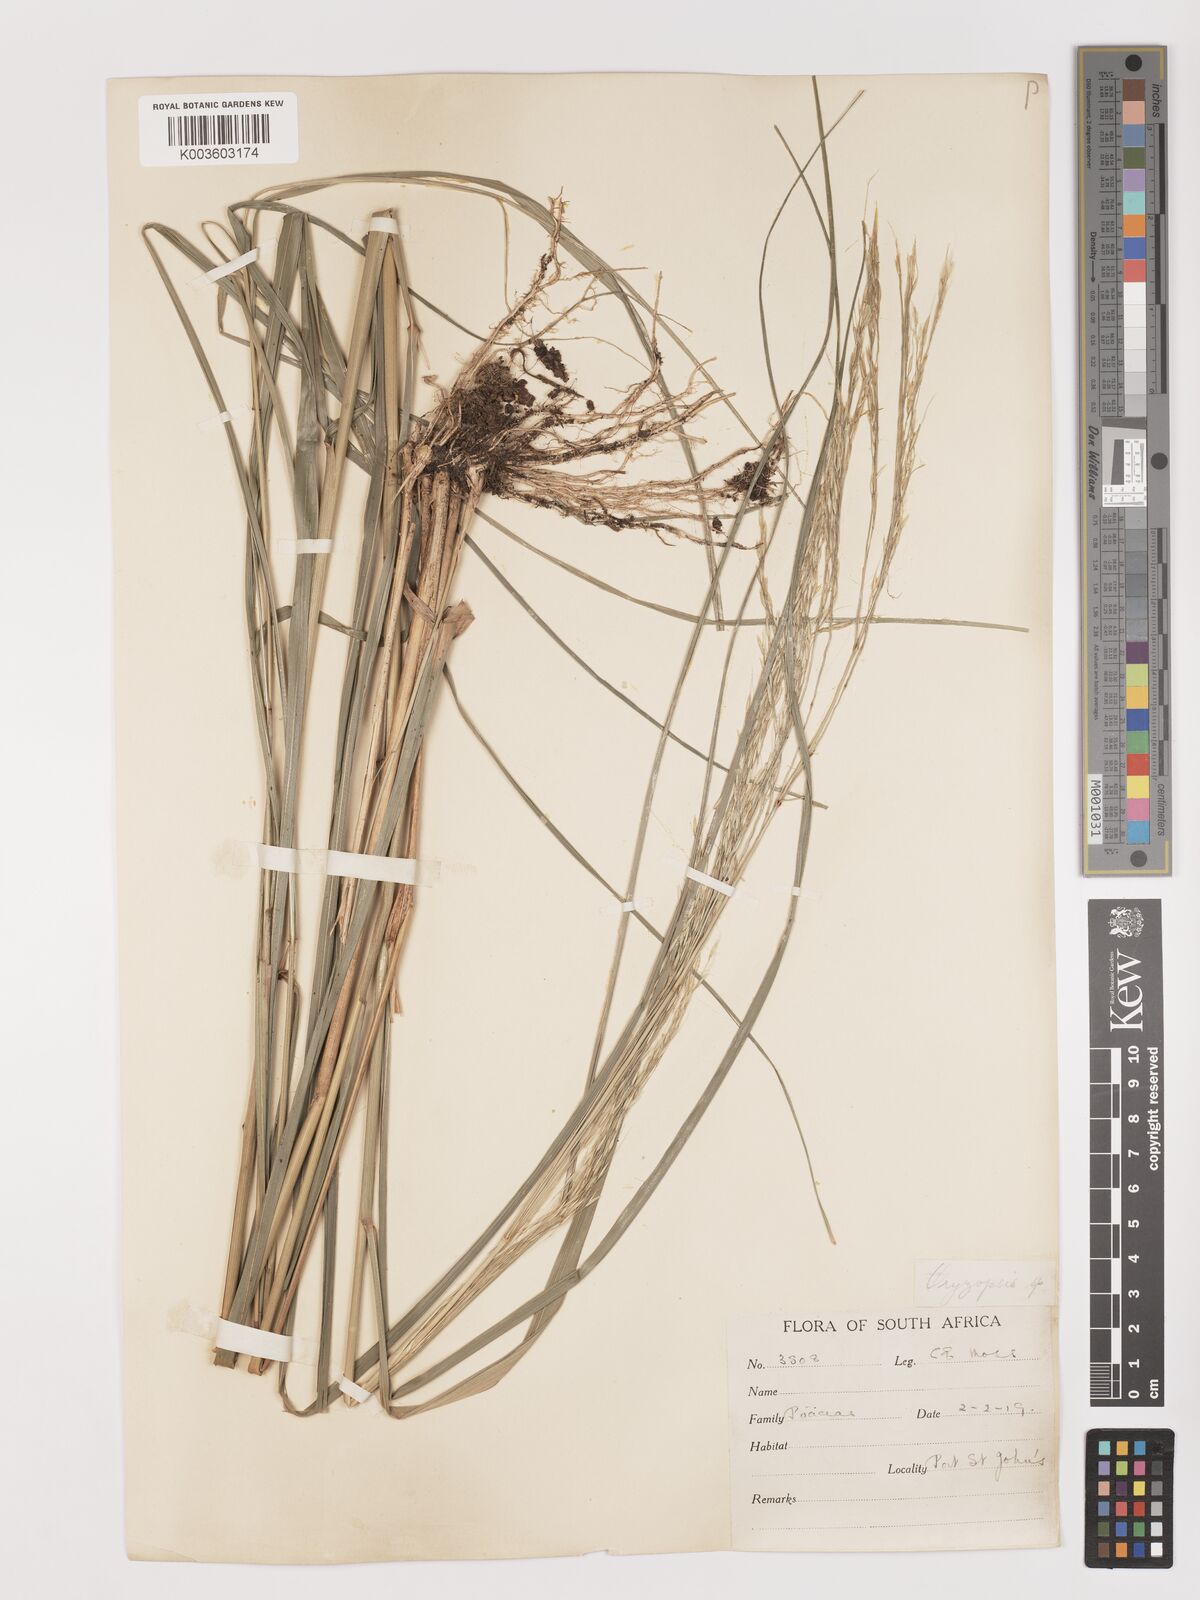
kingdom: Plantae
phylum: Tracheophyta
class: Liliopsida
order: Poales
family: Poaceae
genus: Stipa
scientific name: Stipa dregeana
